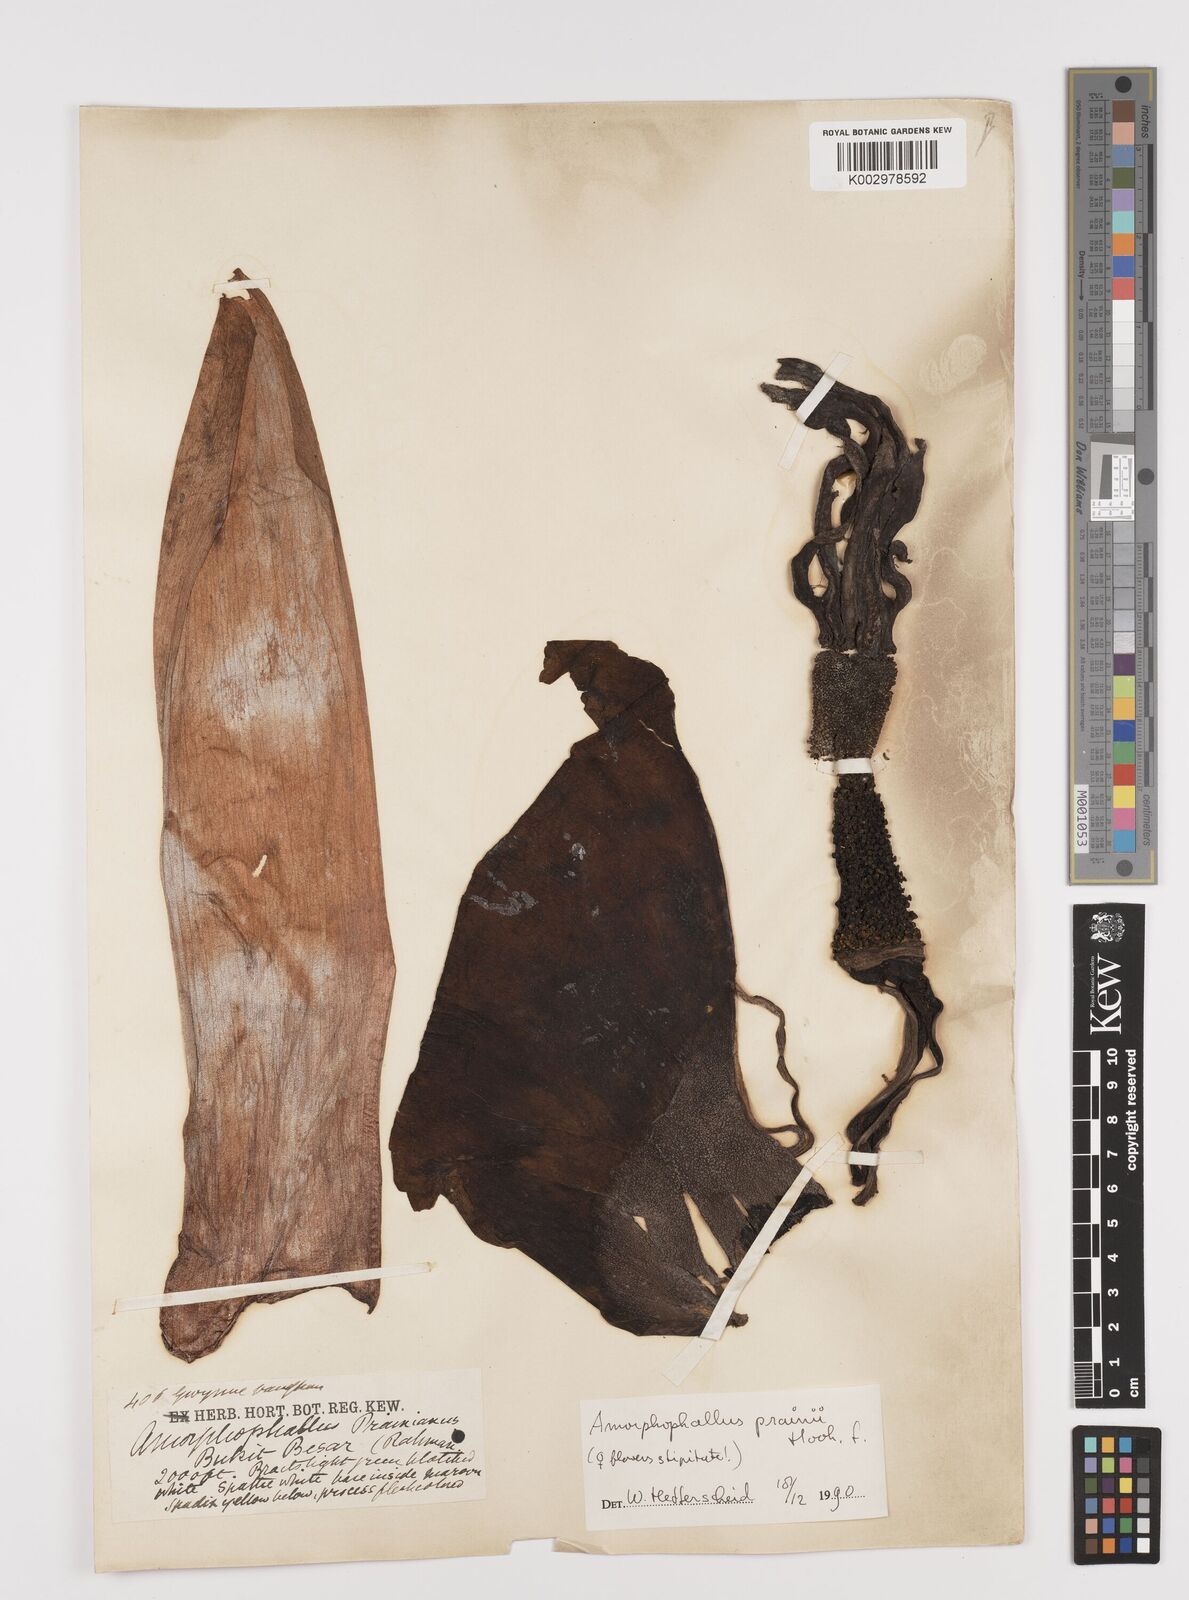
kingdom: Plantae
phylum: Tracheophyta
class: Liliopsida
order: Alismatales
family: Araceae
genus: Amorphophallus
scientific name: Amorphophallus prainii
